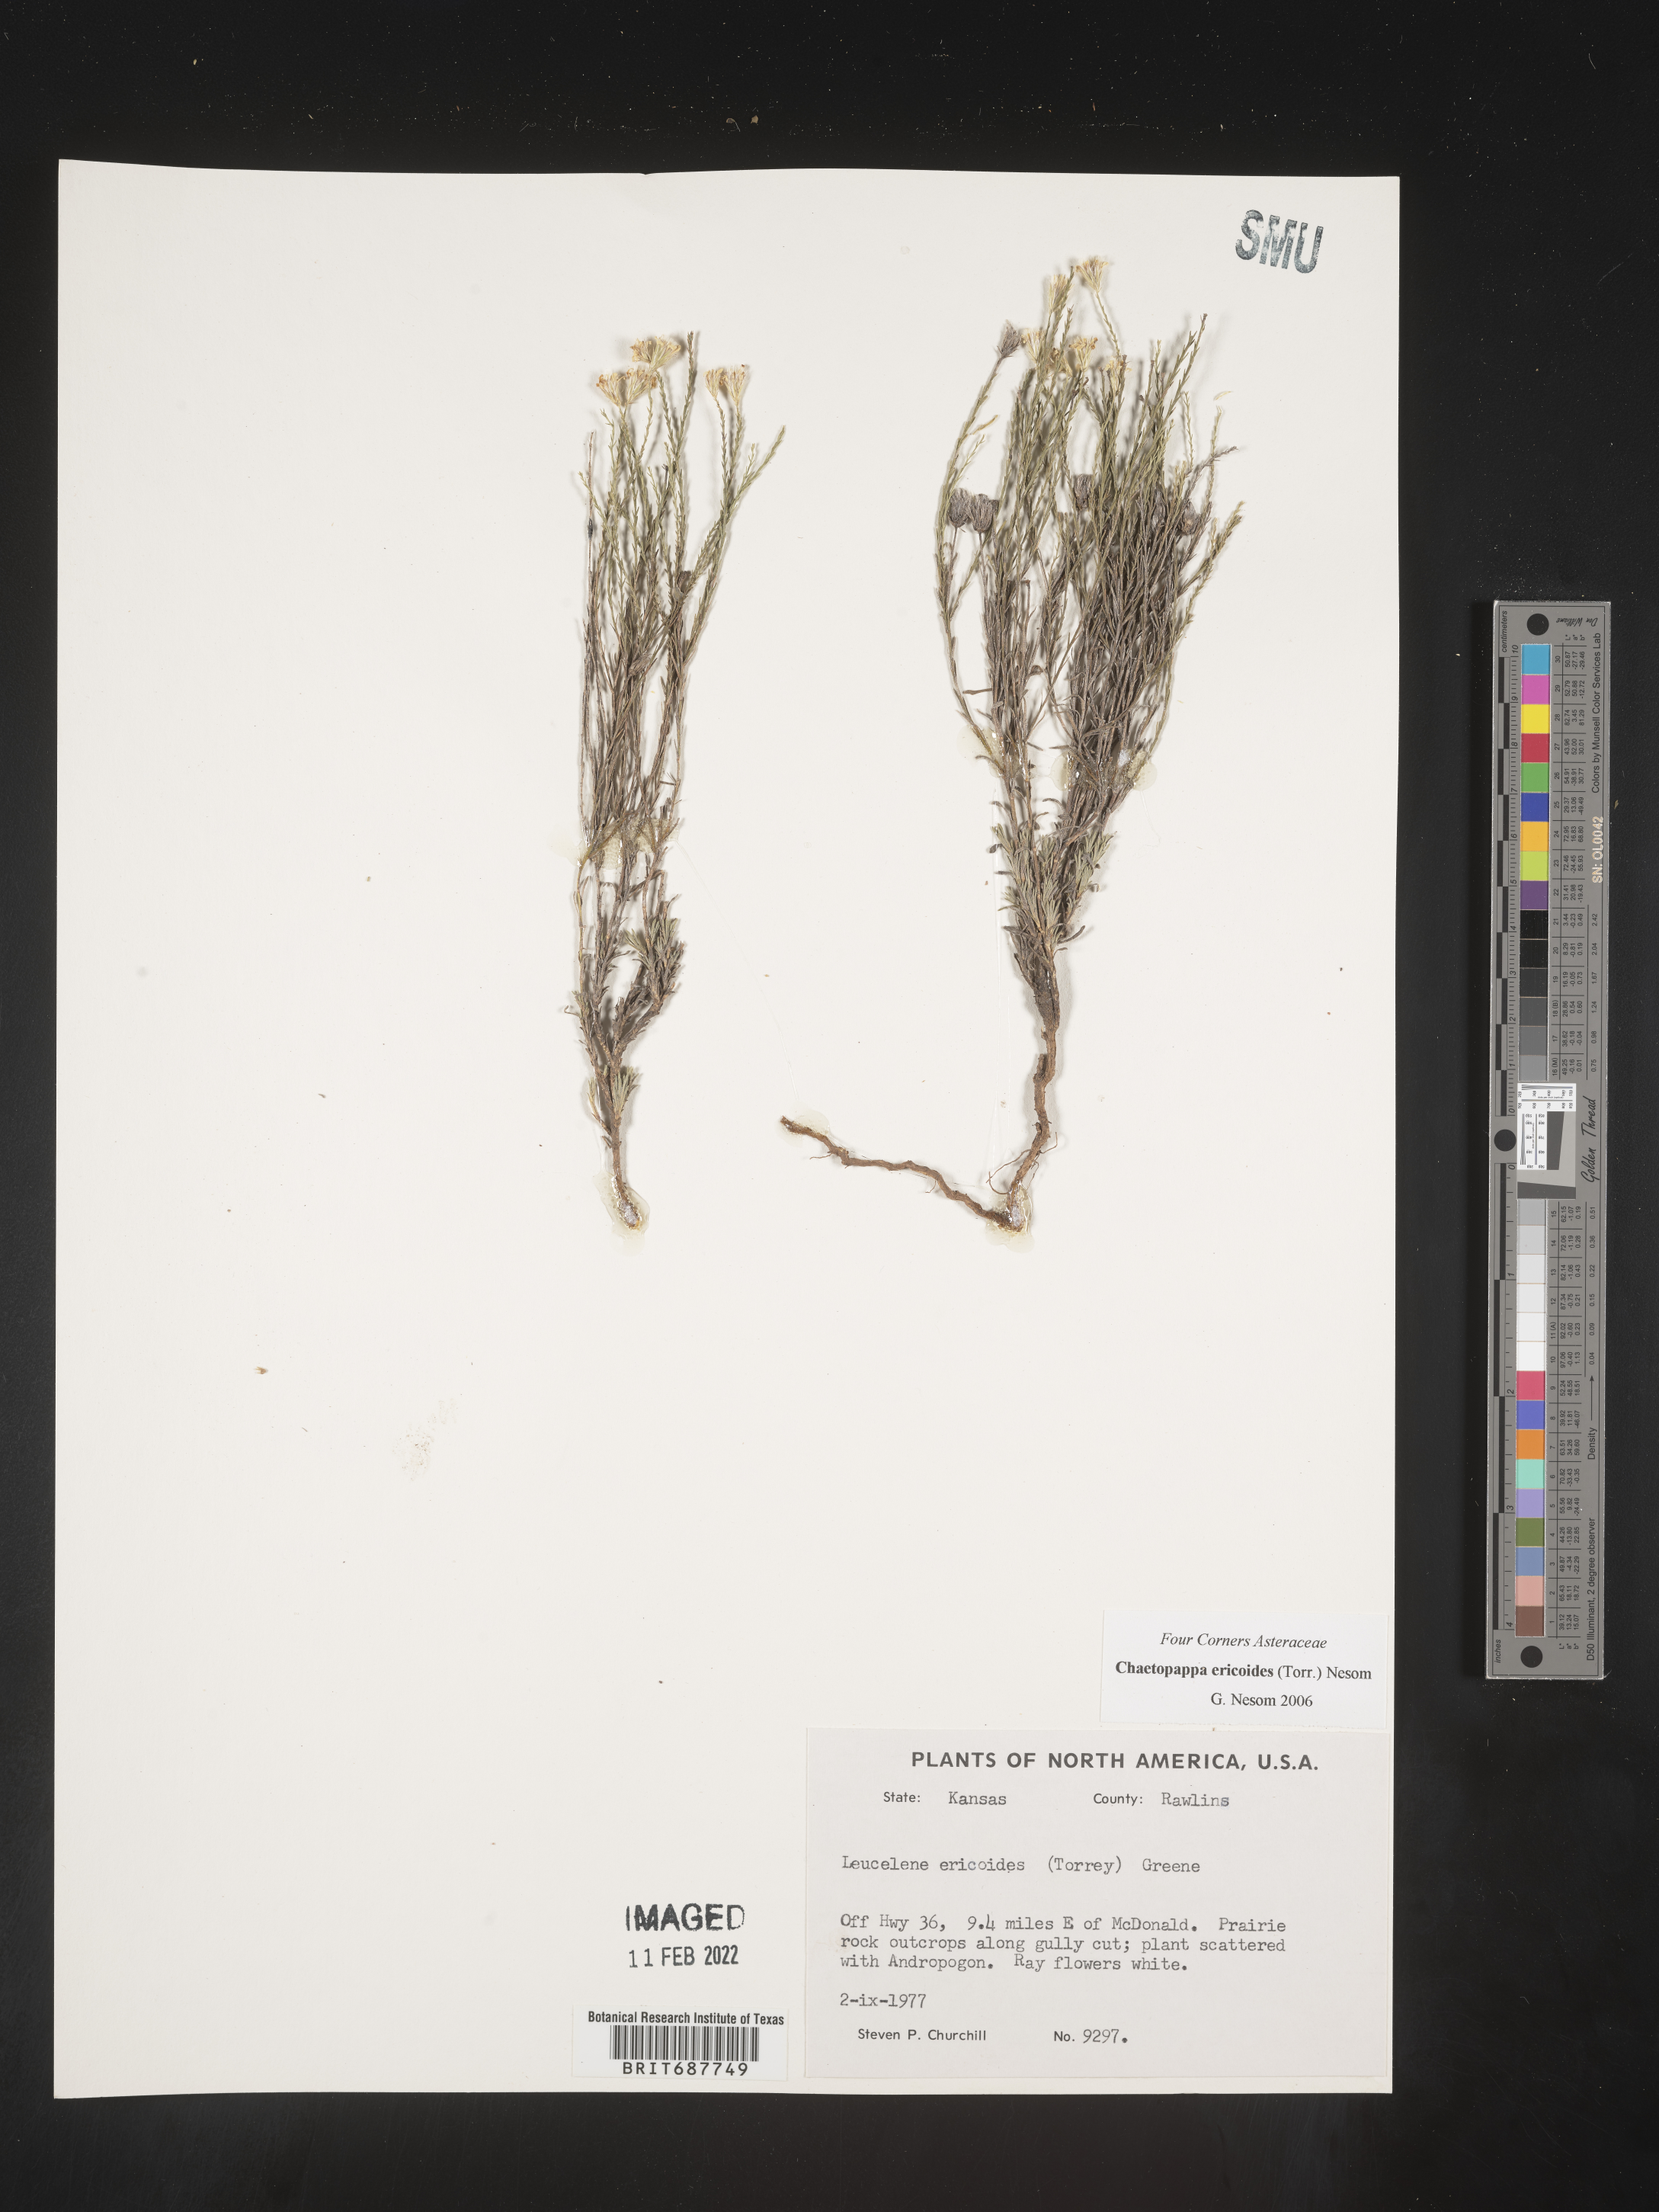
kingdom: Plantae
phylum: Tracheophyta
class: Magnoliopsida
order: Asterales
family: Asteraceae
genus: Chaetopappa
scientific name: Chaetopappa ericoides
